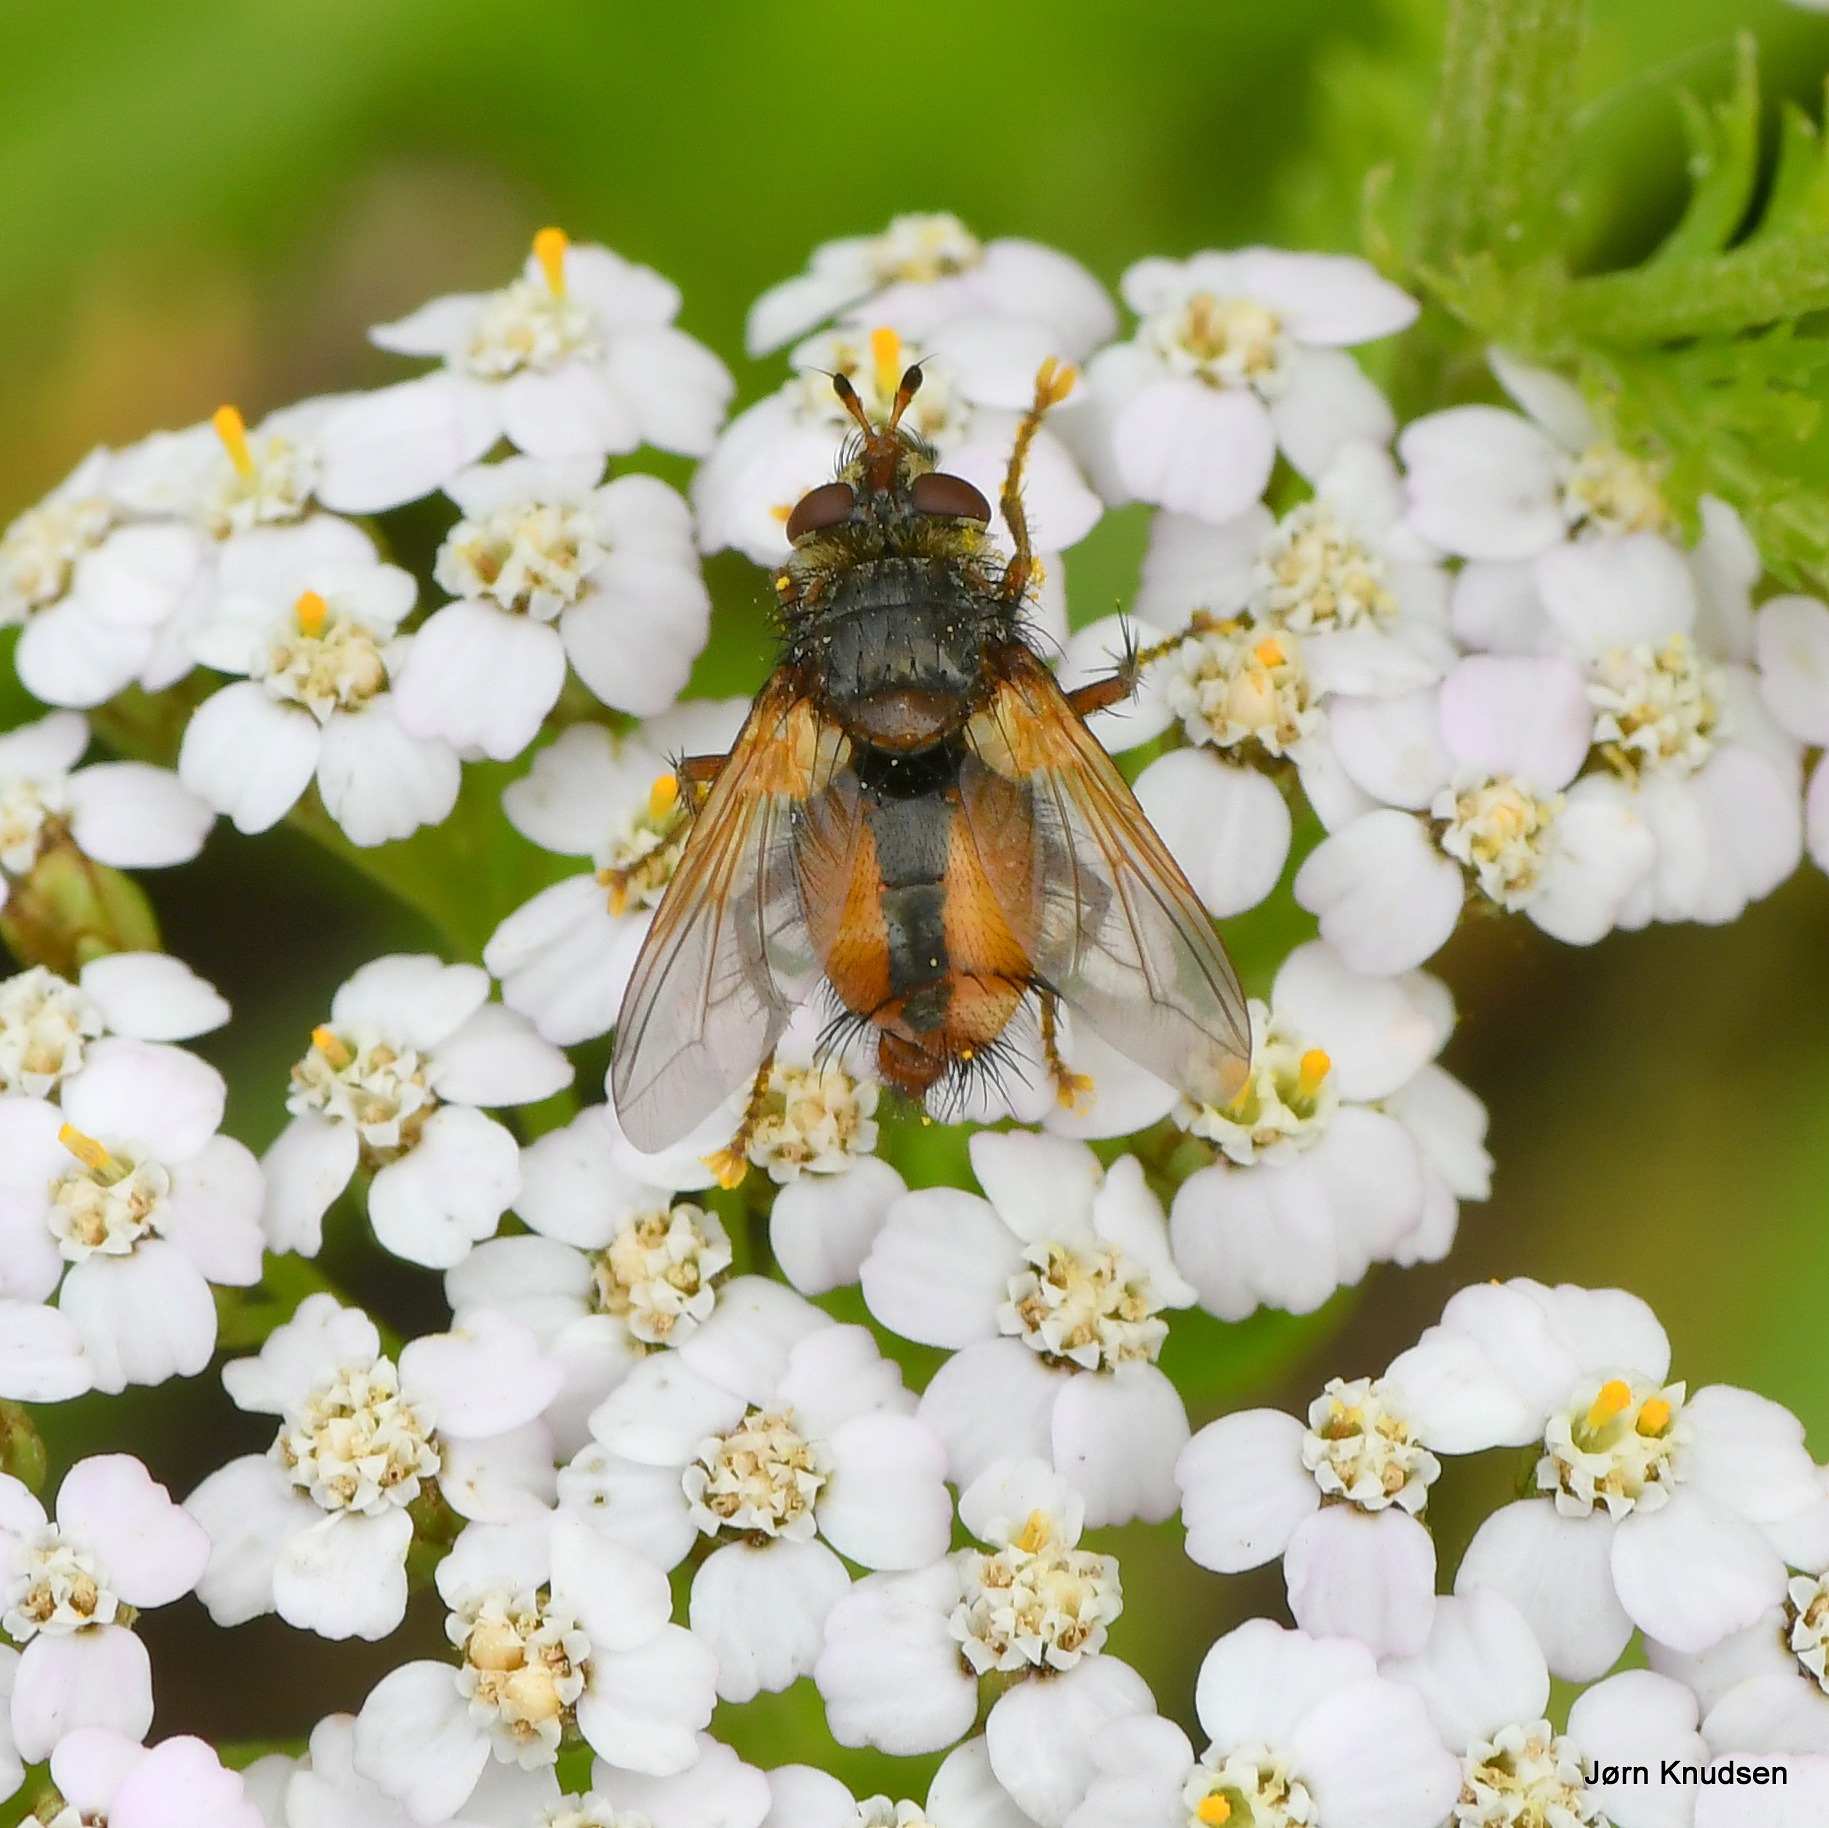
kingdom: Animalia
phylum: Arthropoda
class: Insecta
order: Diptera
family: Tachinidae
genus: Tachina
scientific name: Tachina fera
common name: Mellemfluen oskar
